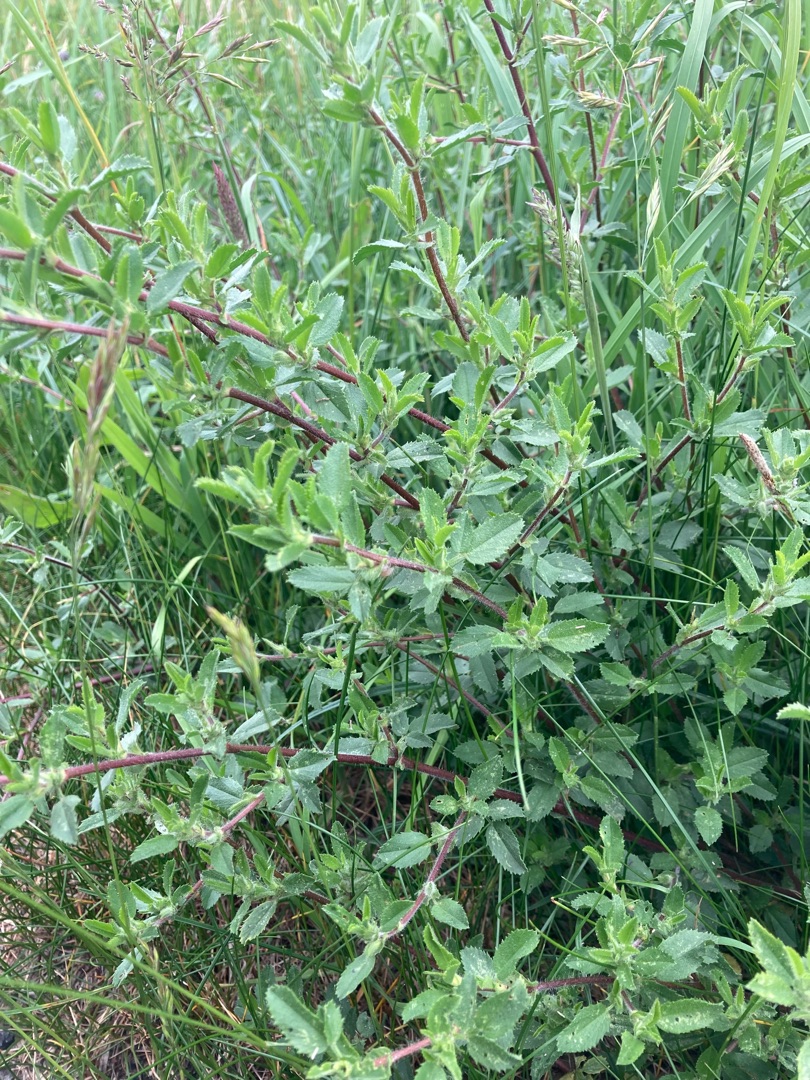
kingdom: Plantae
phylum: Tracheophyta
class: Magnoliopsida
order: Fabales
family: Fabaceae
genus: Ononis
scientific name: Ononis spinosa
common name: Krageklo
